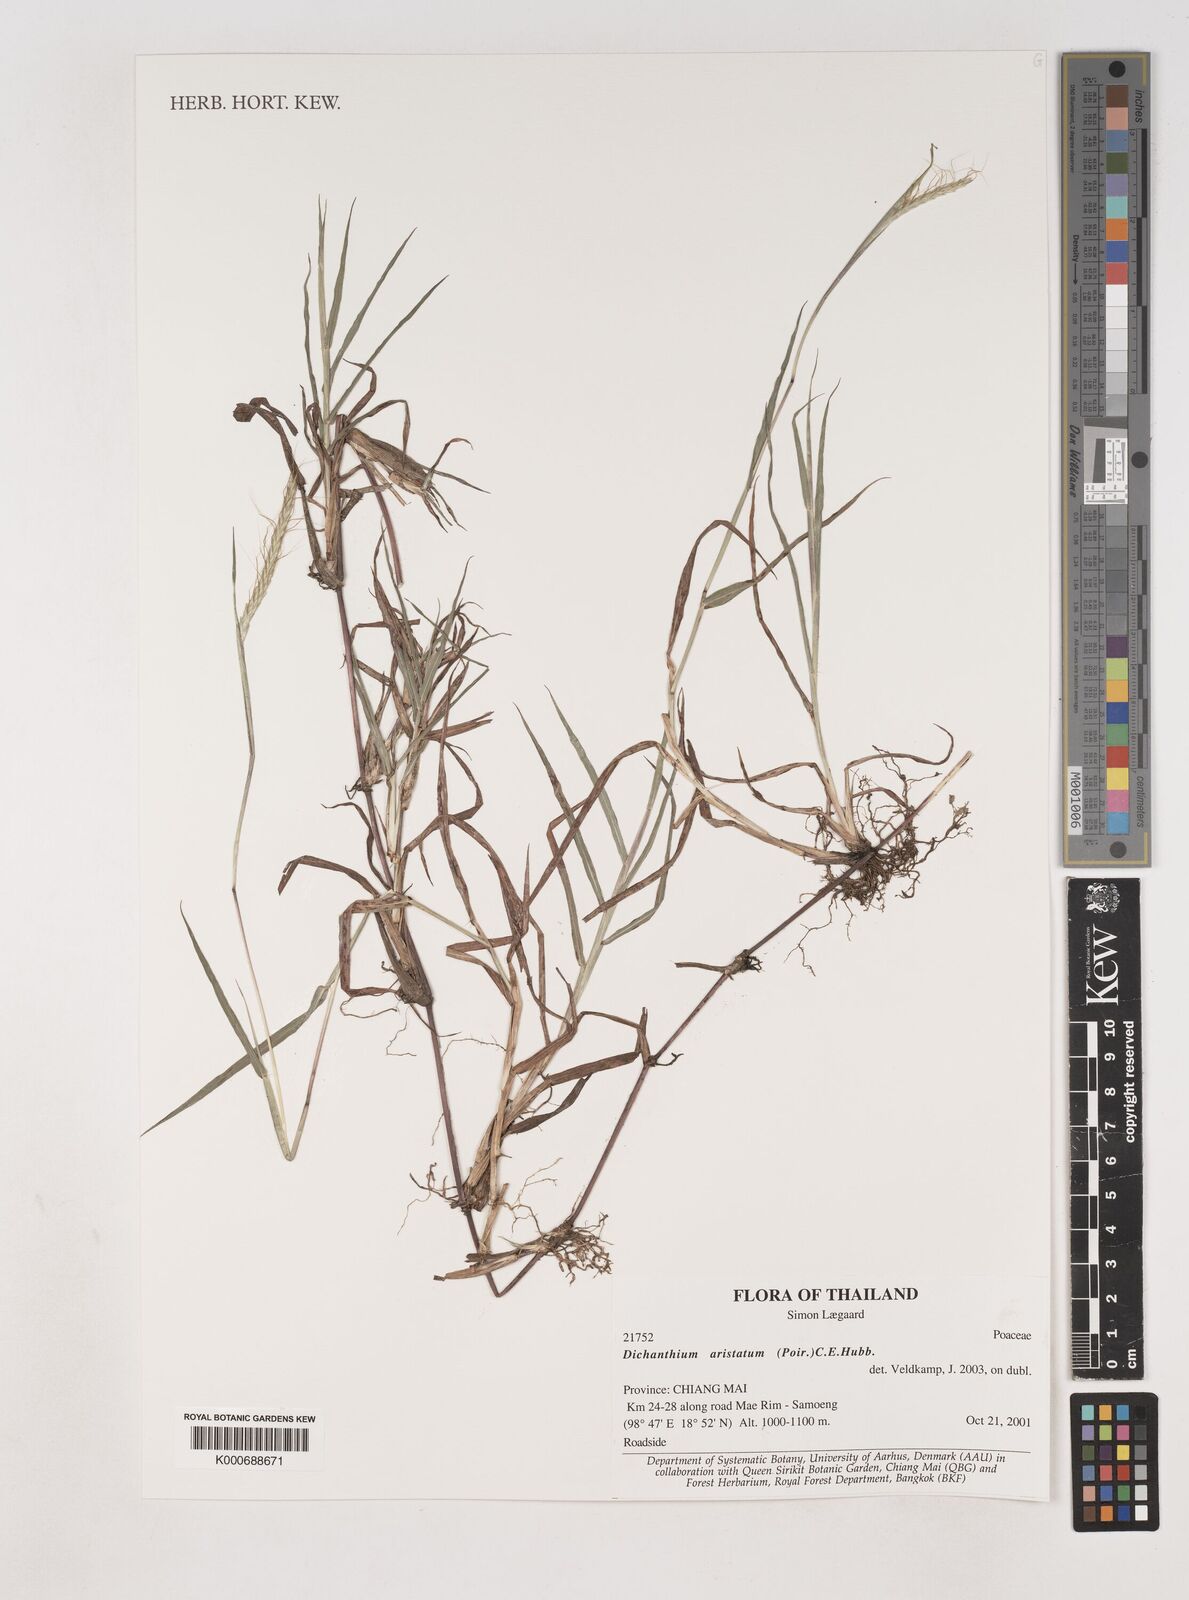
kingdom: Plantae
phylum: Tracheophyta
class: Liliopsida
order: Poales
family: Poaceae
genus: Dichanthium
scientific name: Dichanthium aristatum
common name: Angleton bluestem
